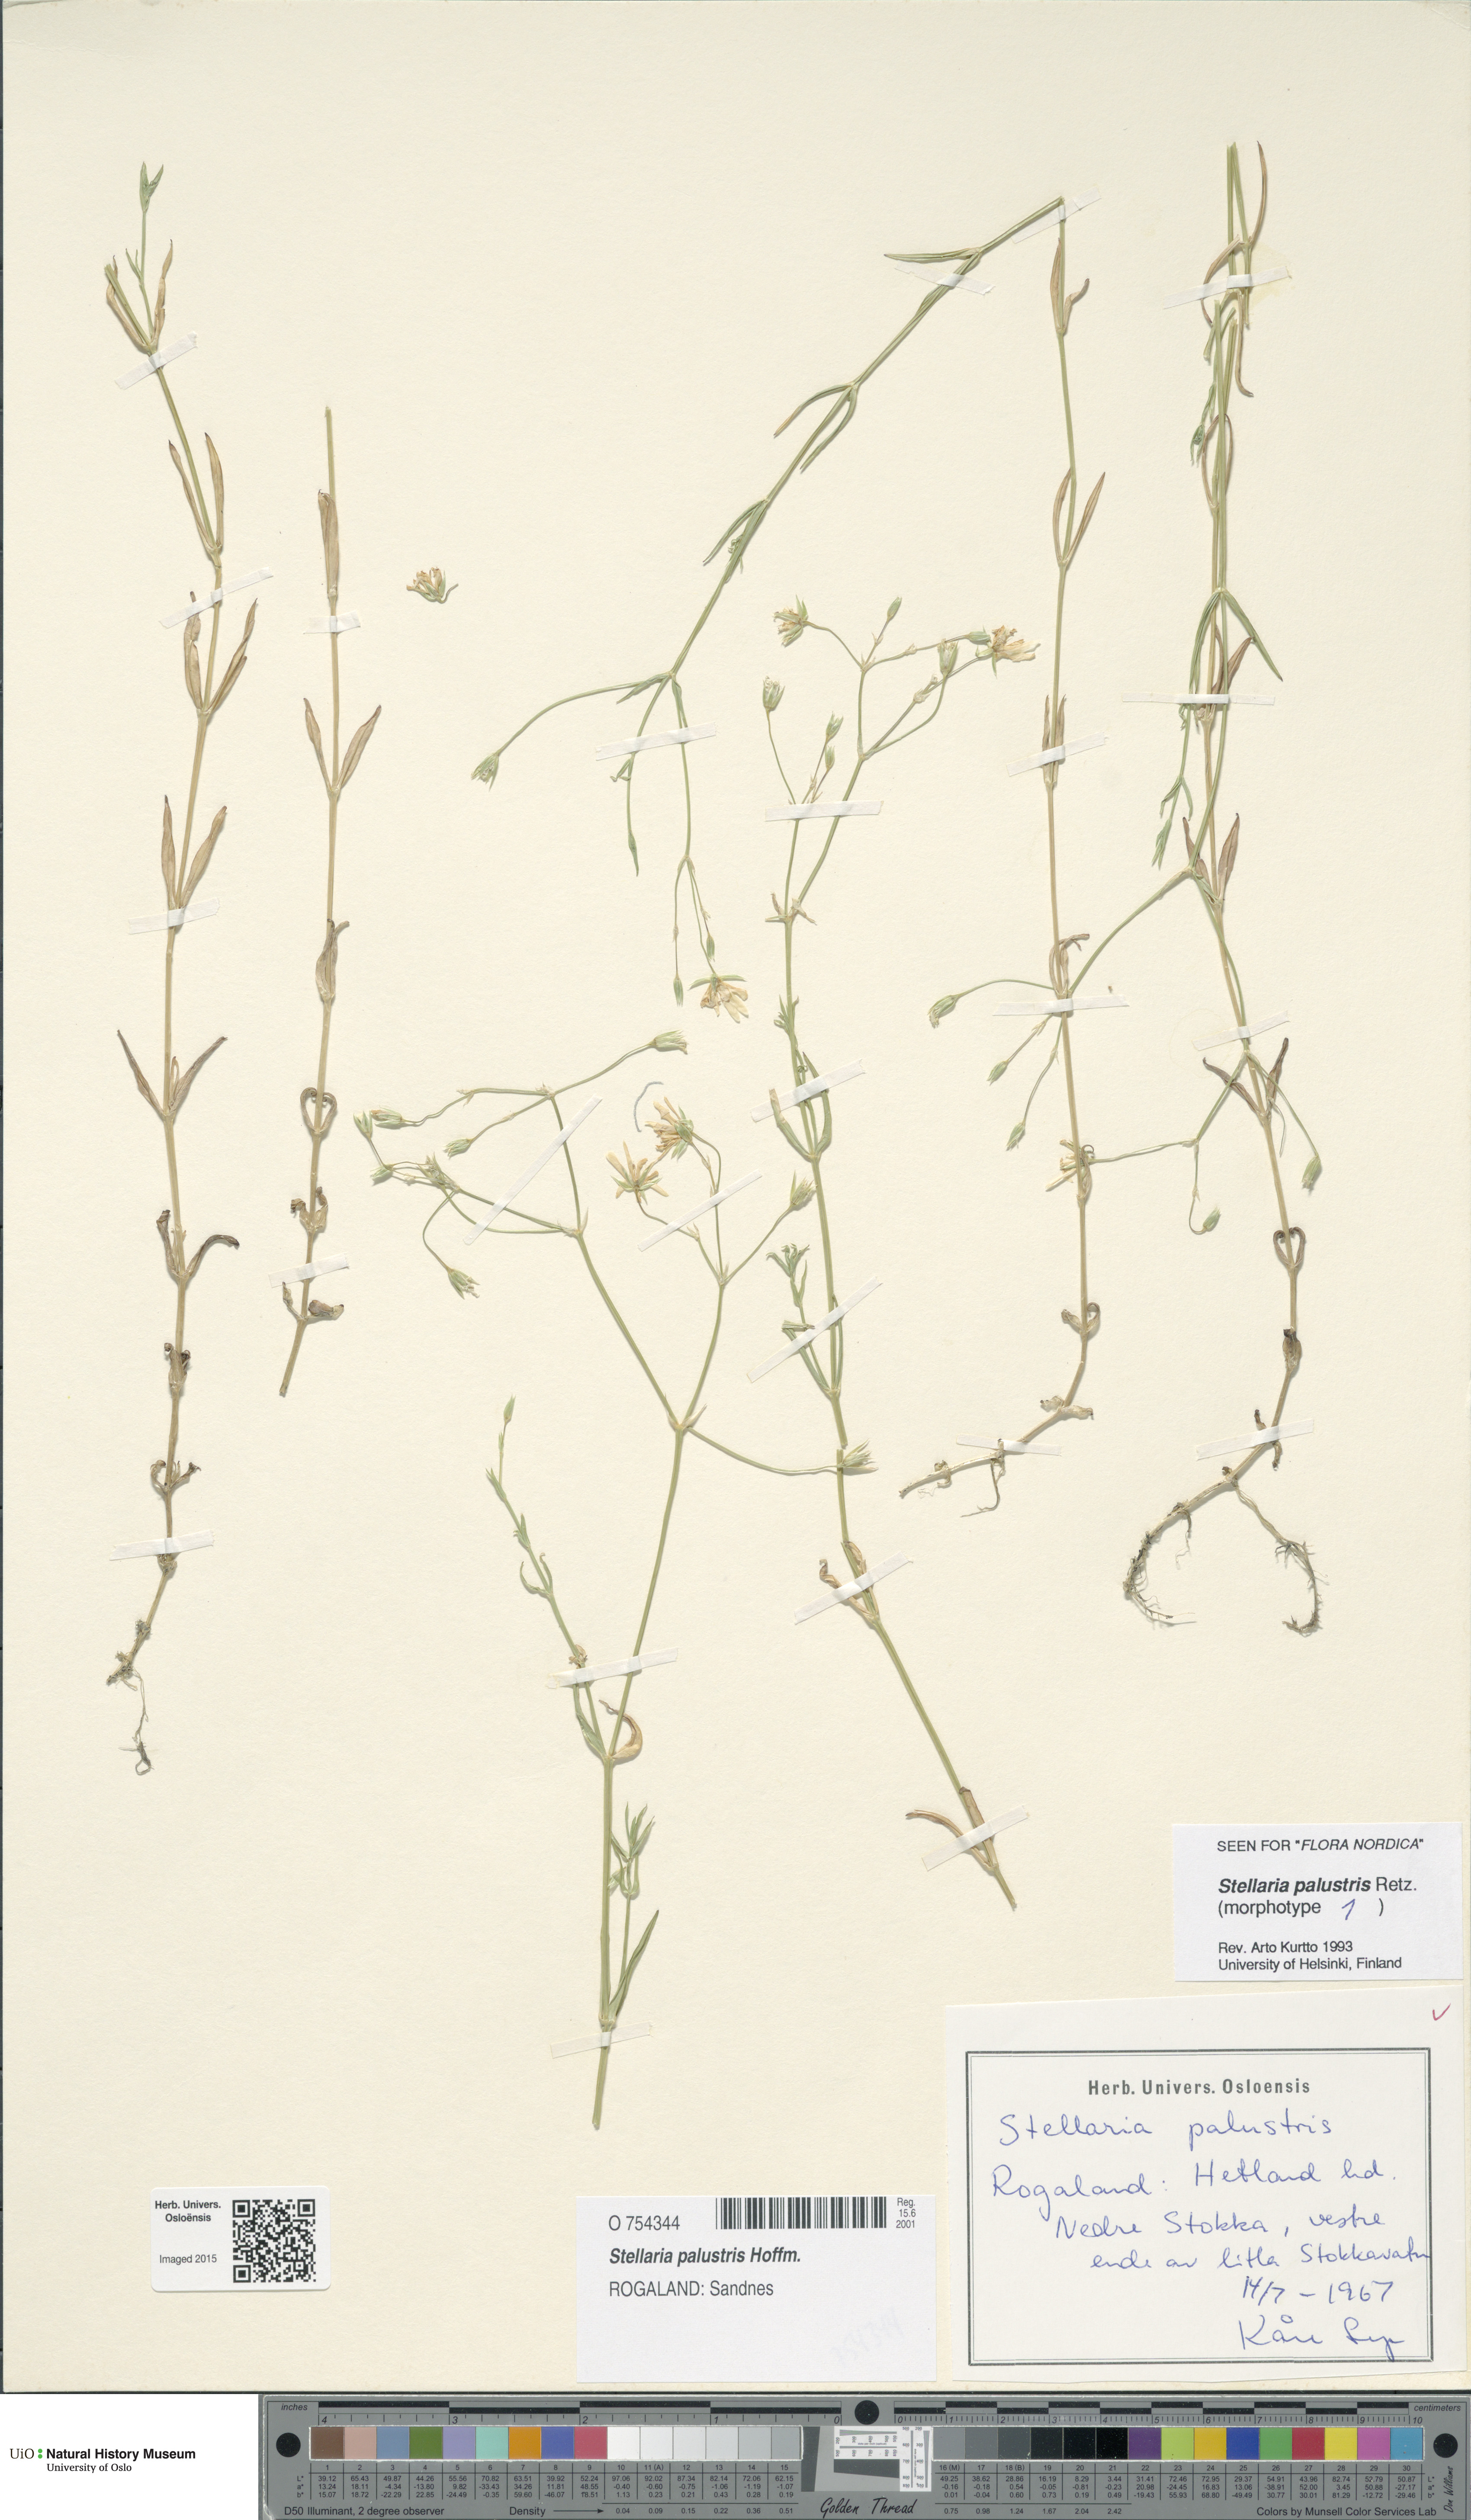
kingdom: Plantae
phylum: Tracheophyta
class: Magnoliopsida
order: Caryophyllales
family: Caryophyllaceae
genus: Stellaria
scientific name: Stellaria palustris
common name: Marsh stitchwort
